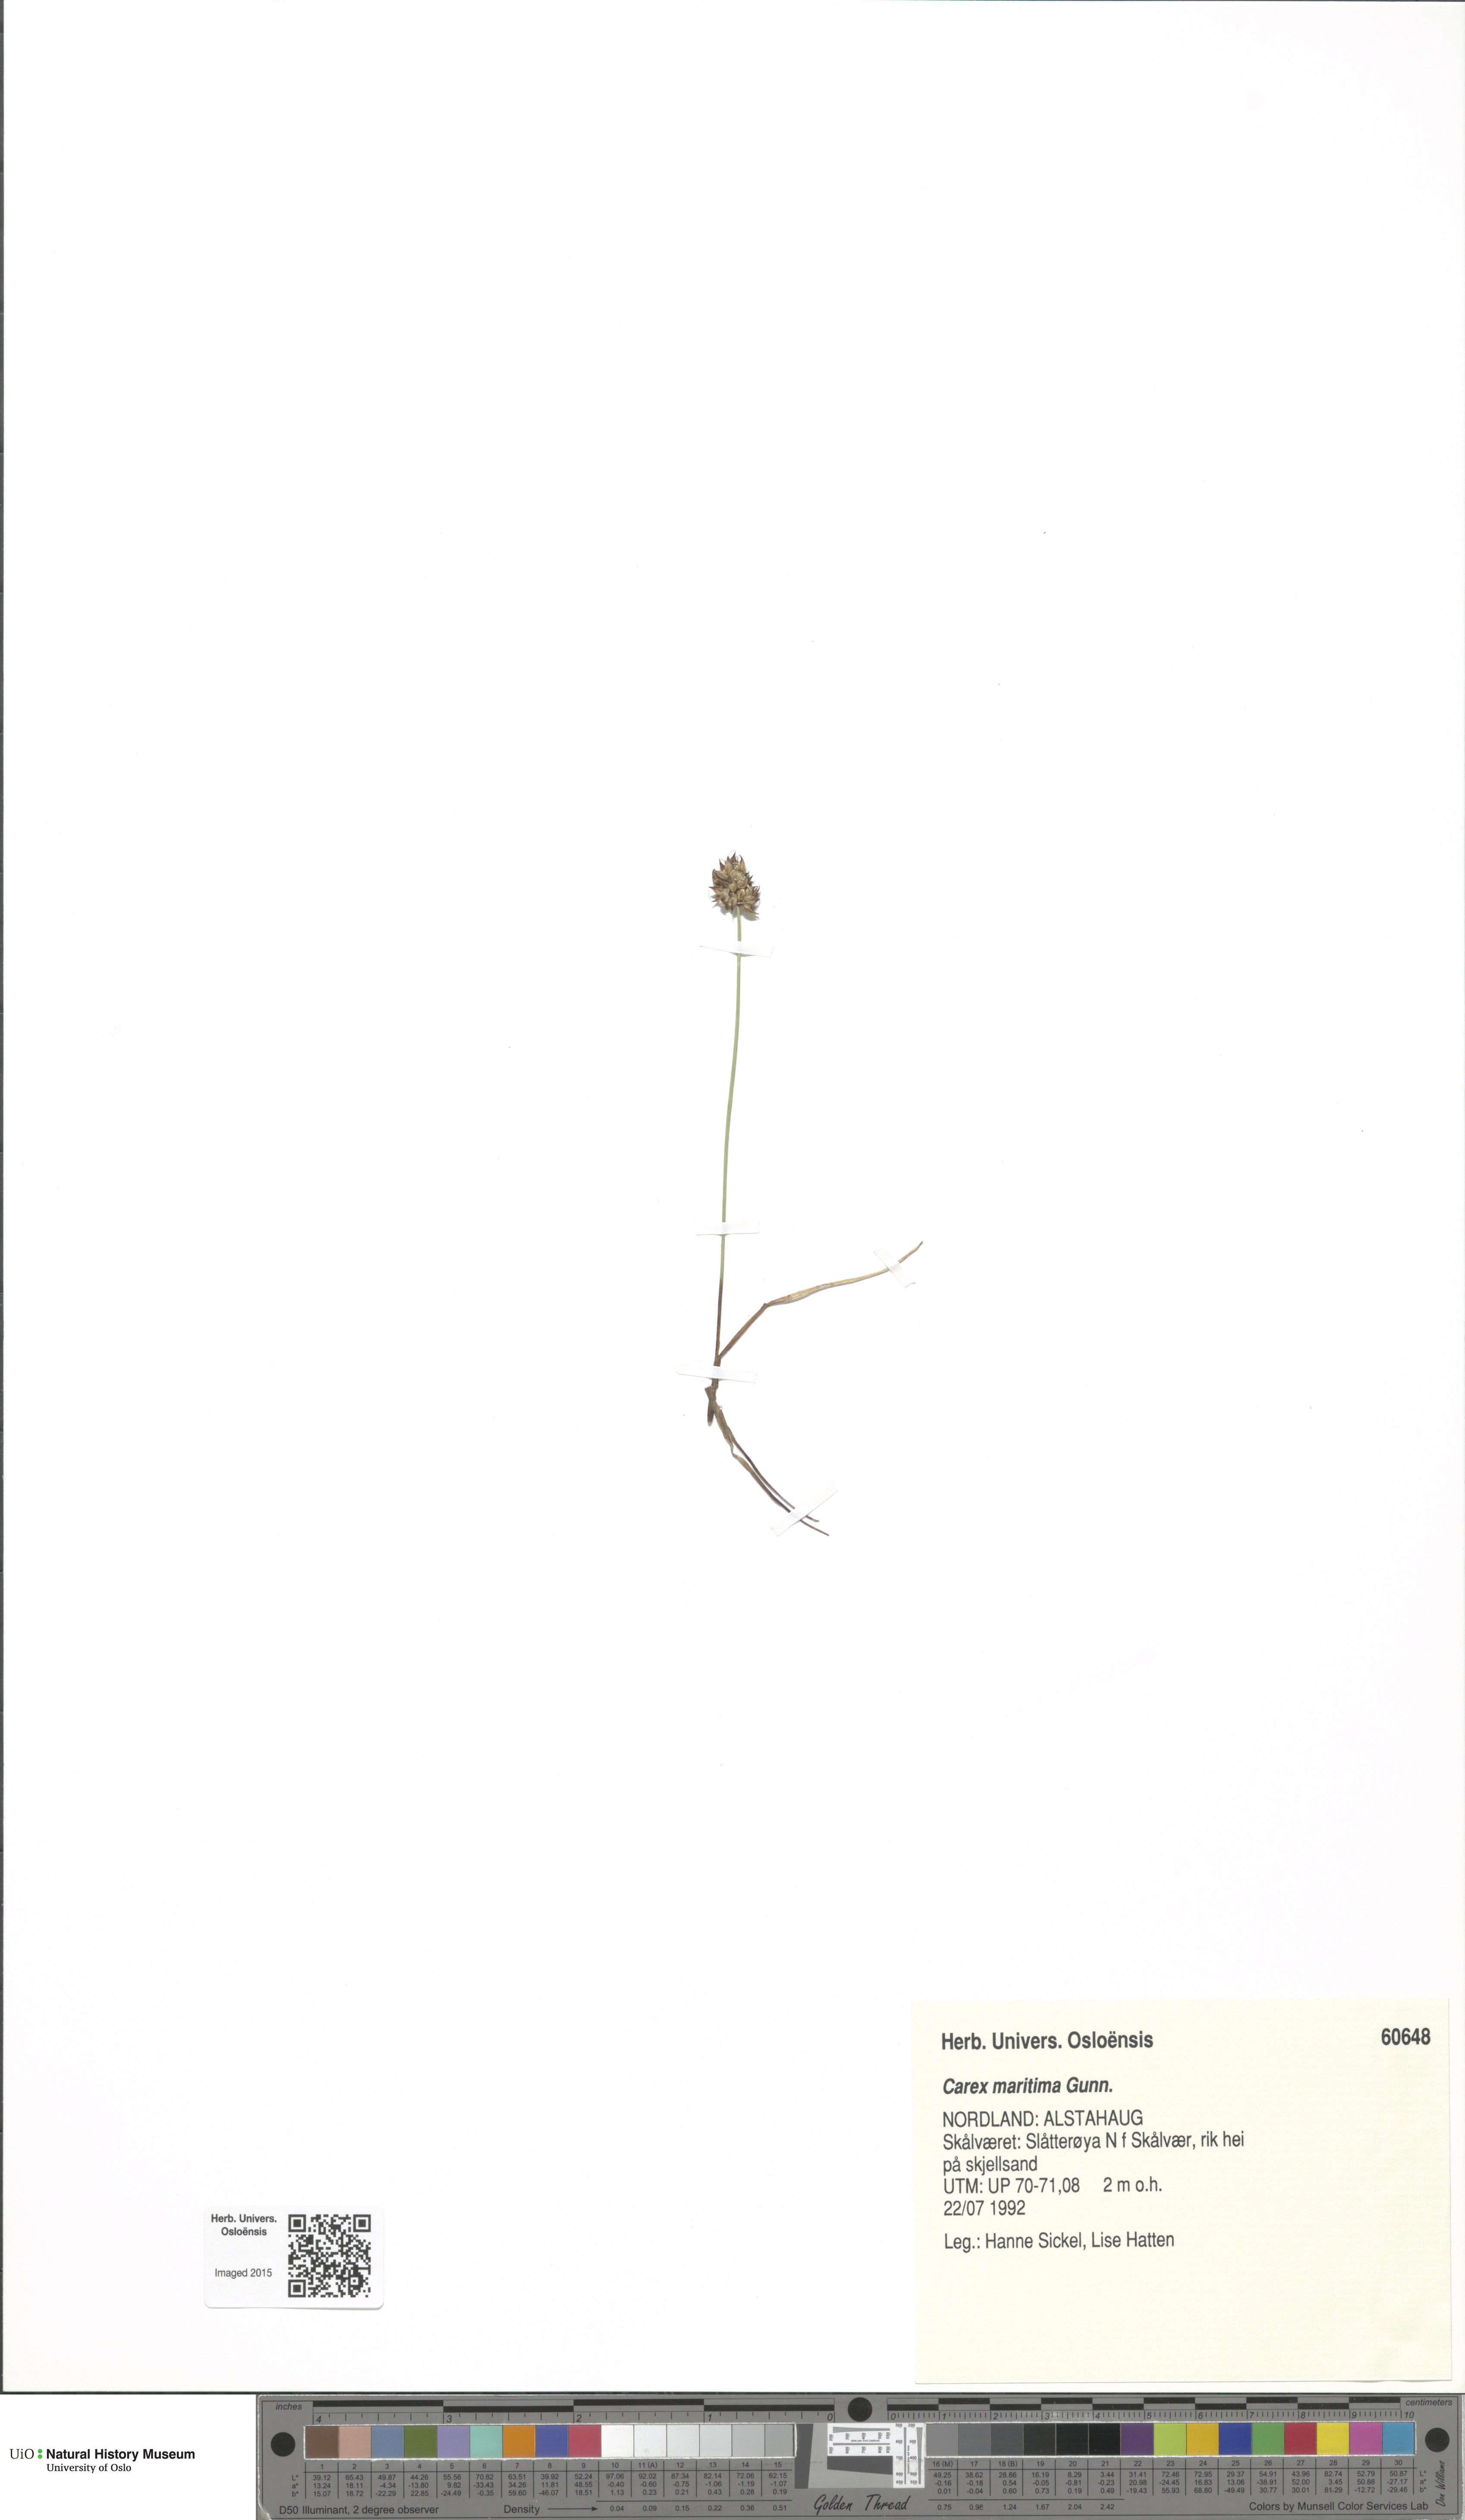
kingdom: Plantae
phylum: Tracheophyta
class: Liliopsida
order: Poales
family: Cyperaceae
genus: Carex
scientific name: Carex maritima
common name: Curved sedge
